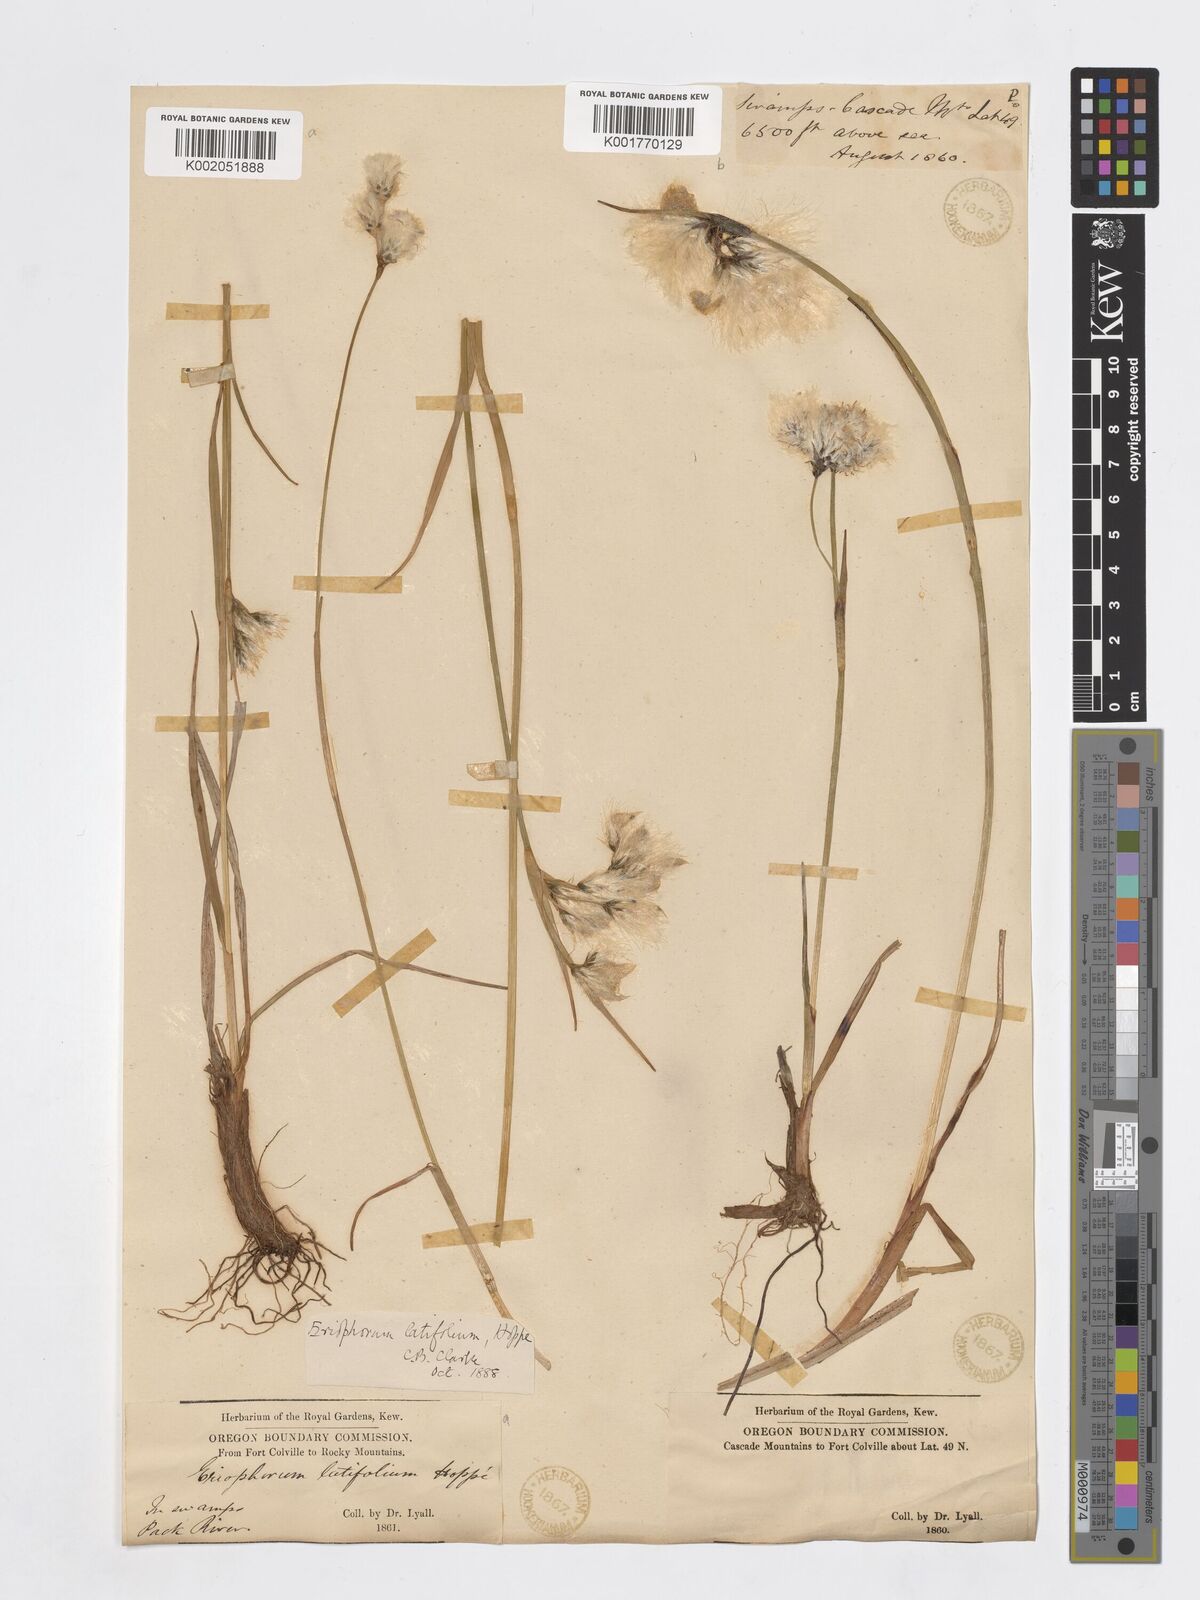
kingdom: Plantae
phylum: Tracheophyta
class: Liliopsida
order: Poales
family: Cyperaceae
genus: Eriophorum
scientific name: Eriophorum latifolium
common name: Broad-leaved cottongrass
